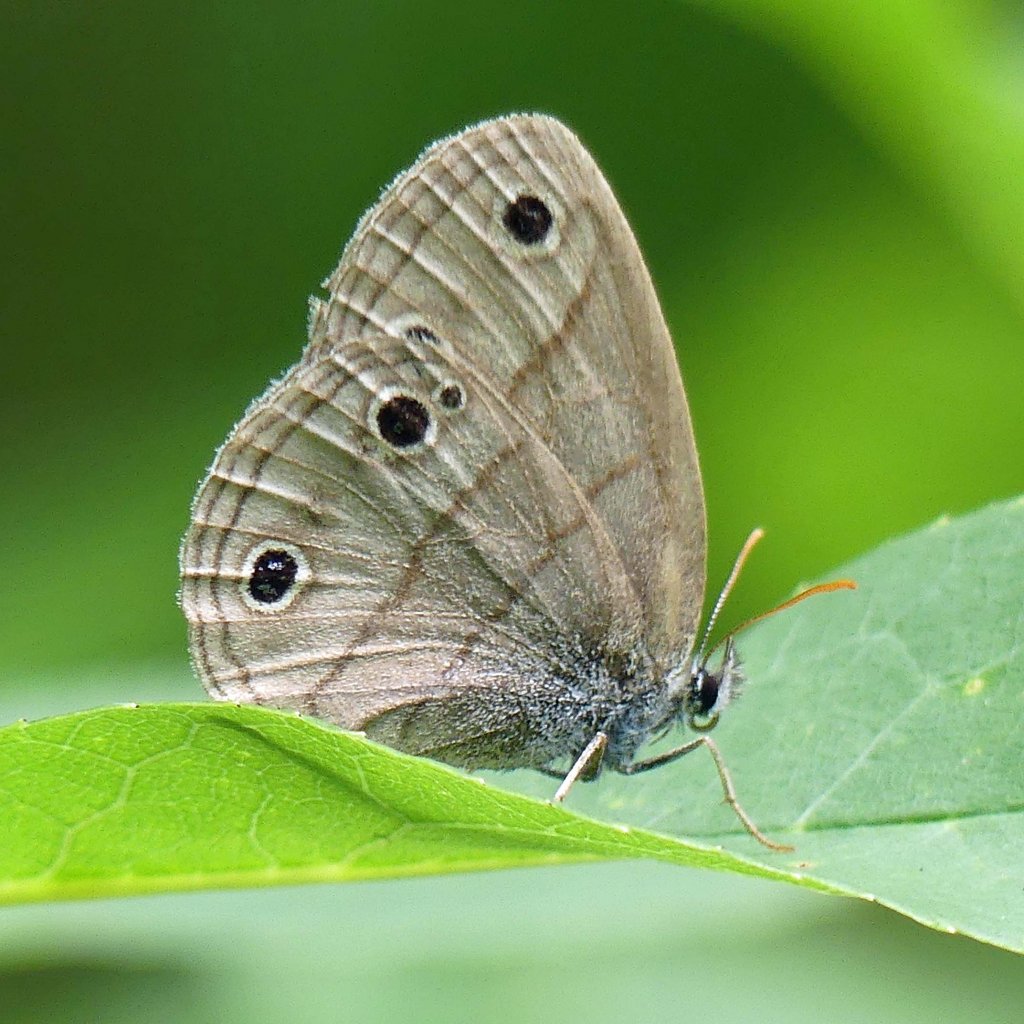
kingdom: Animalia
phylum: Arthropoda
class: Insecta
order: Lepidoptera
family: Nymphalidae
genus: Euptychia
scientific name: Euptychia cymela
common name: Little Wood Satyr
